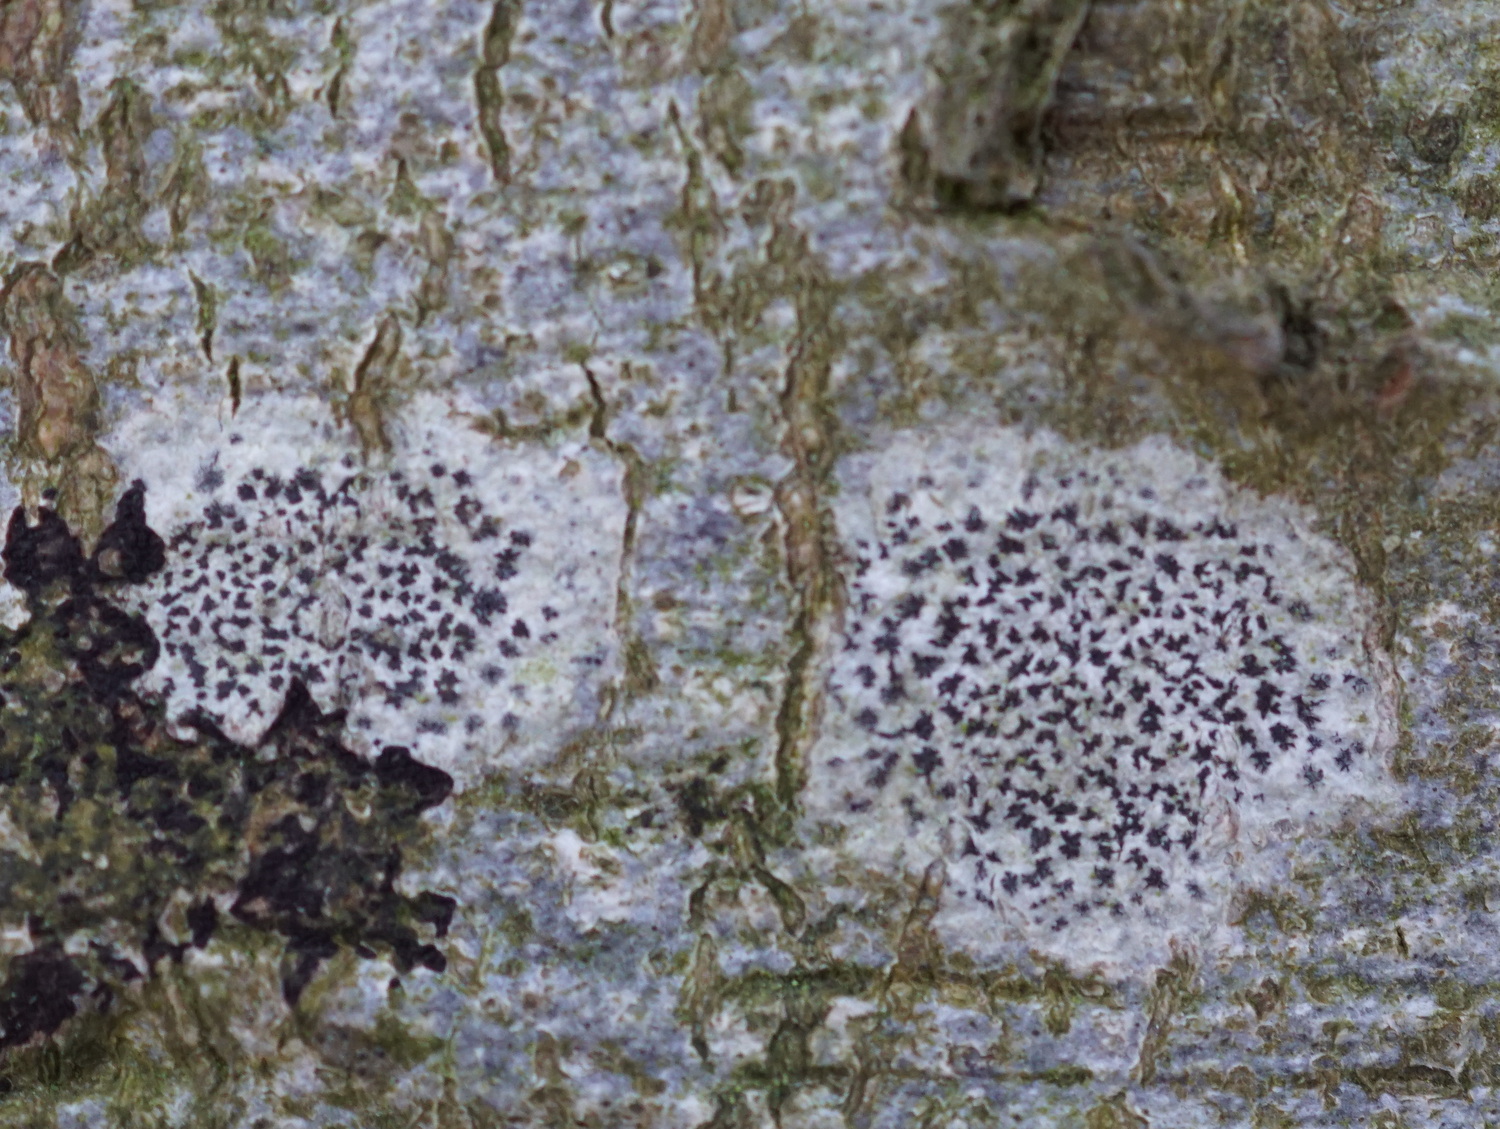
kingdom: Fungi
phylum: Ascomycota
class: Arthoniomycetes
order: Arthoniales
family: Arthoniaceae
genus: Arthonia
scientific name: Arthonia radiata
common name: stjerne-pletlav
